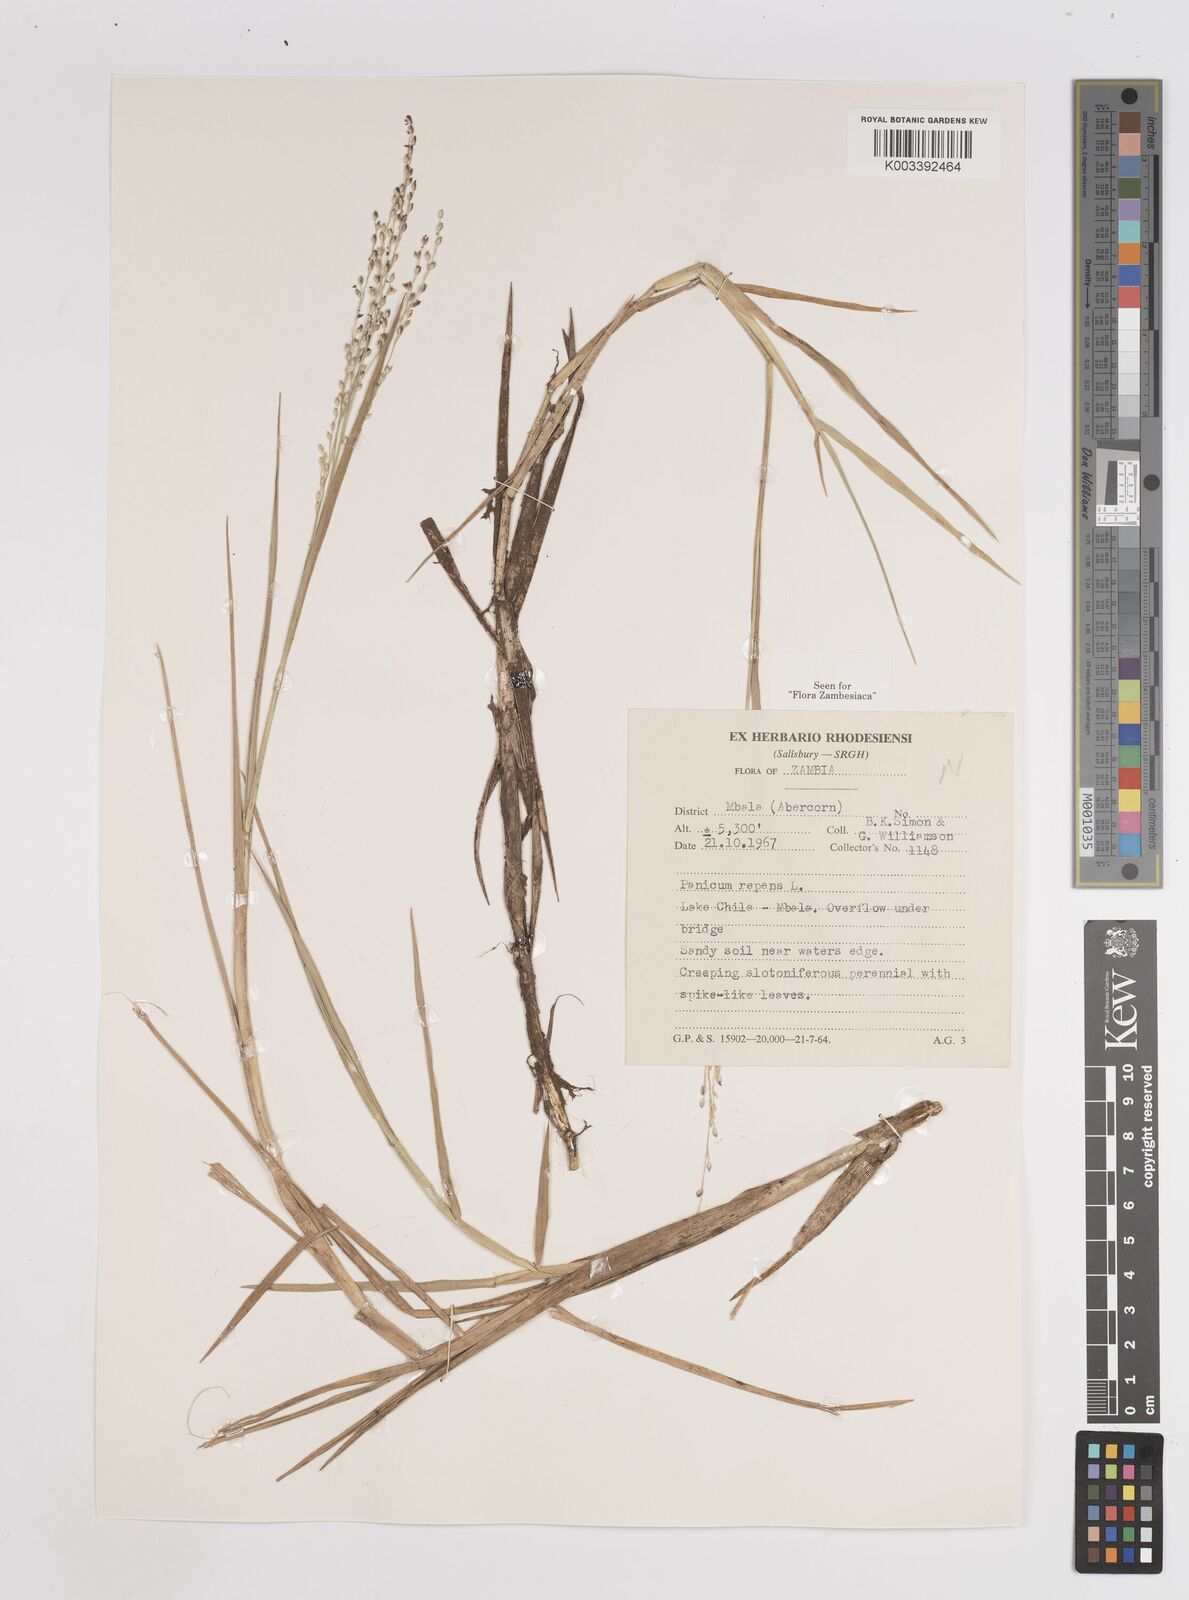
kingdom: Plantae
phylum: Tracheophyta
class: Liliopsida
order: Poales
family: Poaceae
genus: Panicum
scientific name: Panicum repens
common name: Torpedo grass
